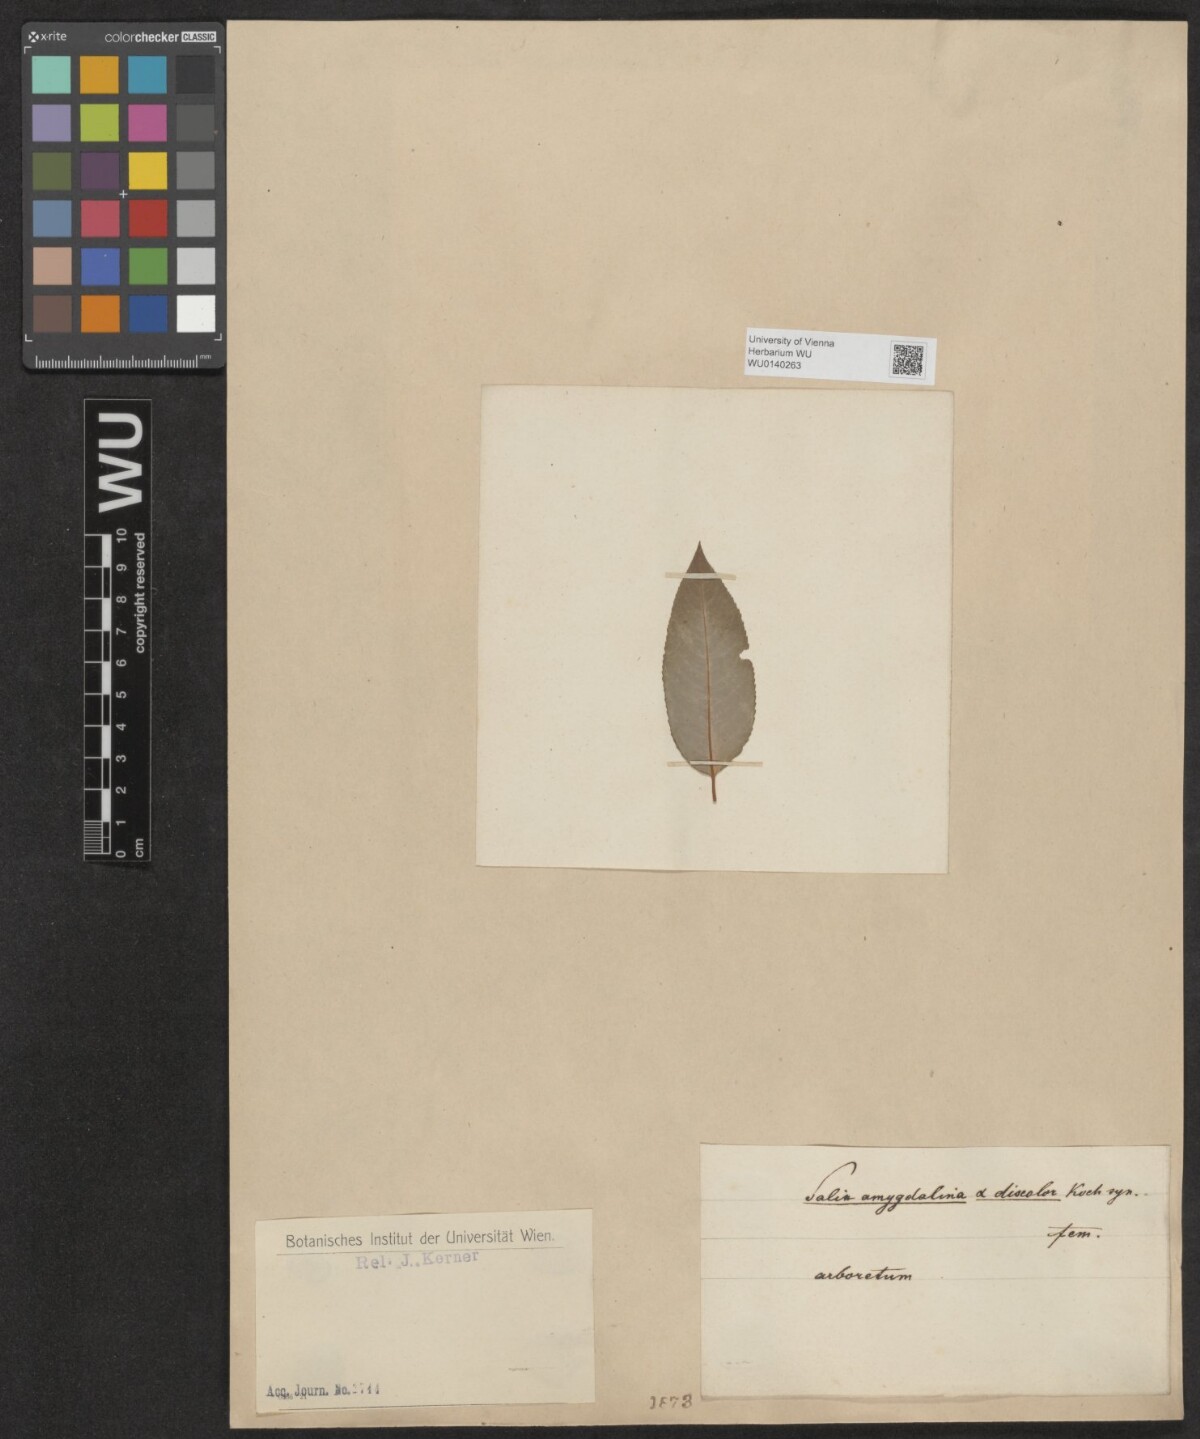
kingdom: Plantae
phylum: Tracheophyta
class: Magnoliopsida
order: Malpighiales
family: Salicaceae
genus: Salix
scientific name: Salix triandra
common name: Almond willow
